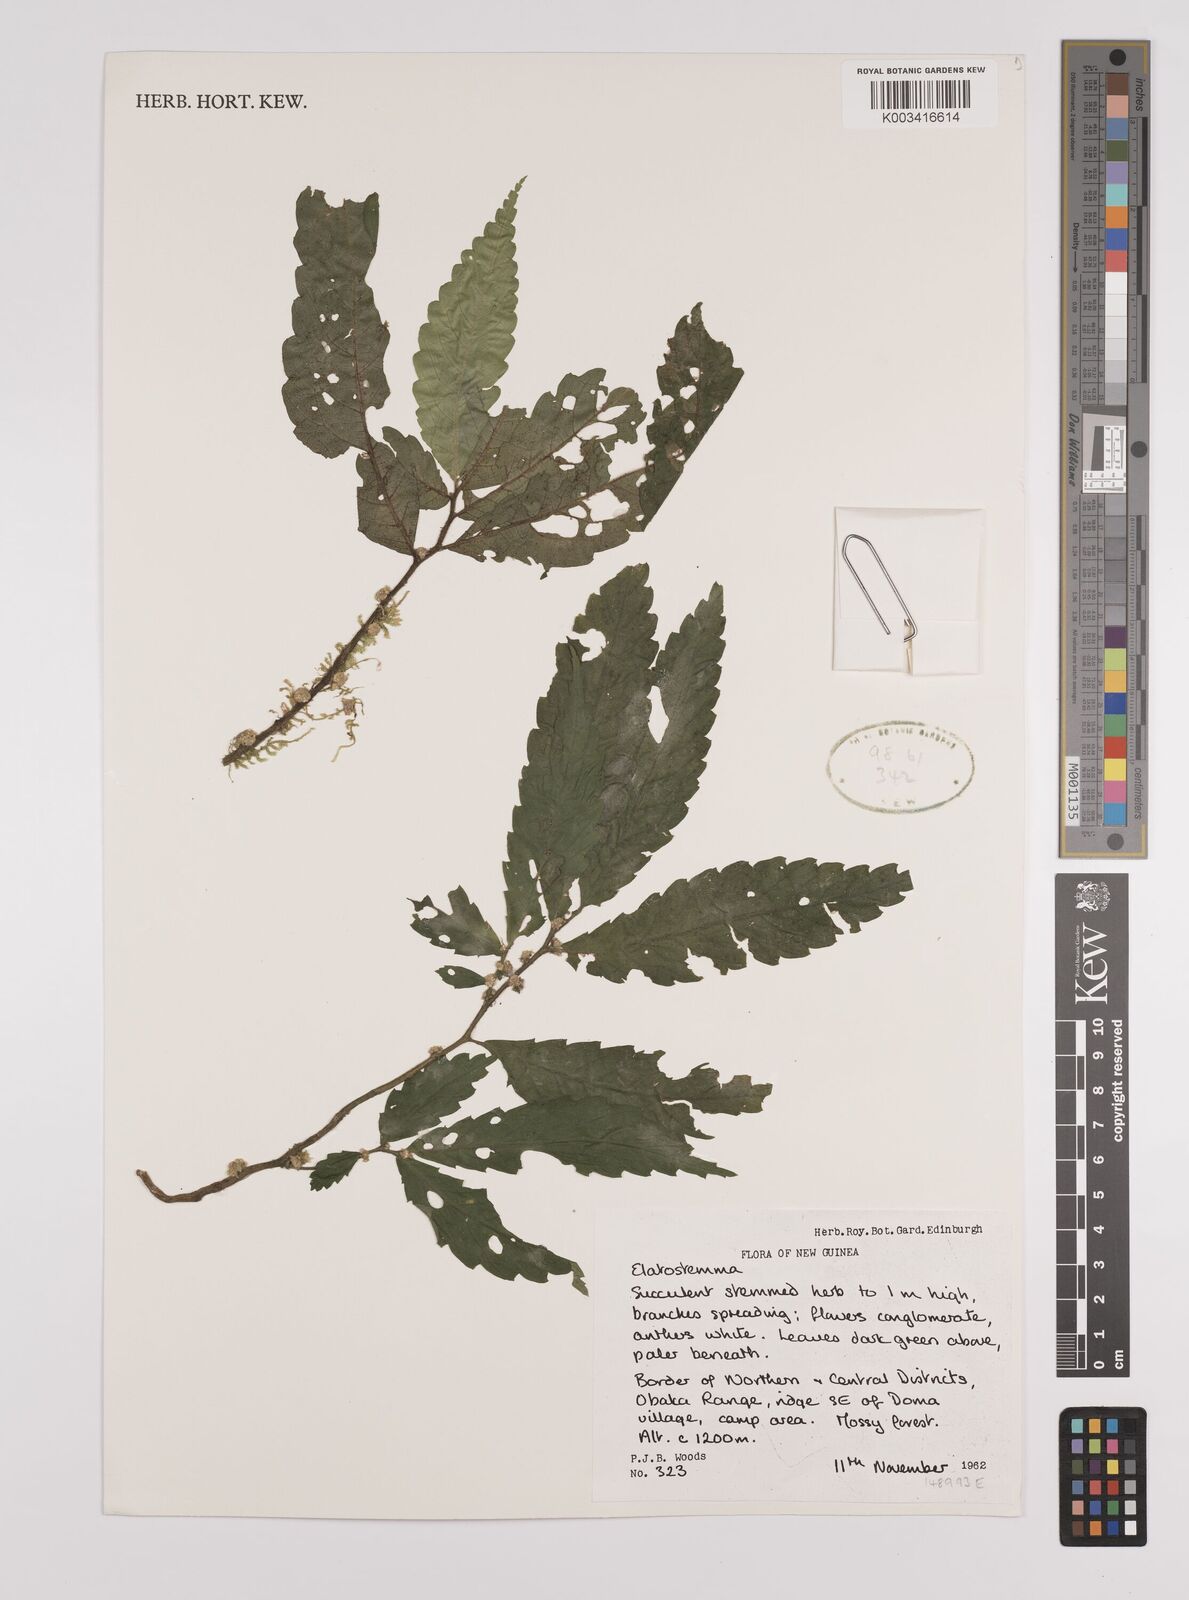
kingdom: Plantae
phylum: Tracheophyta
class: Magnoliopsida
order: Rosales
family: Urticaceae
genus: Elatostema
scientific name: Elatostema
